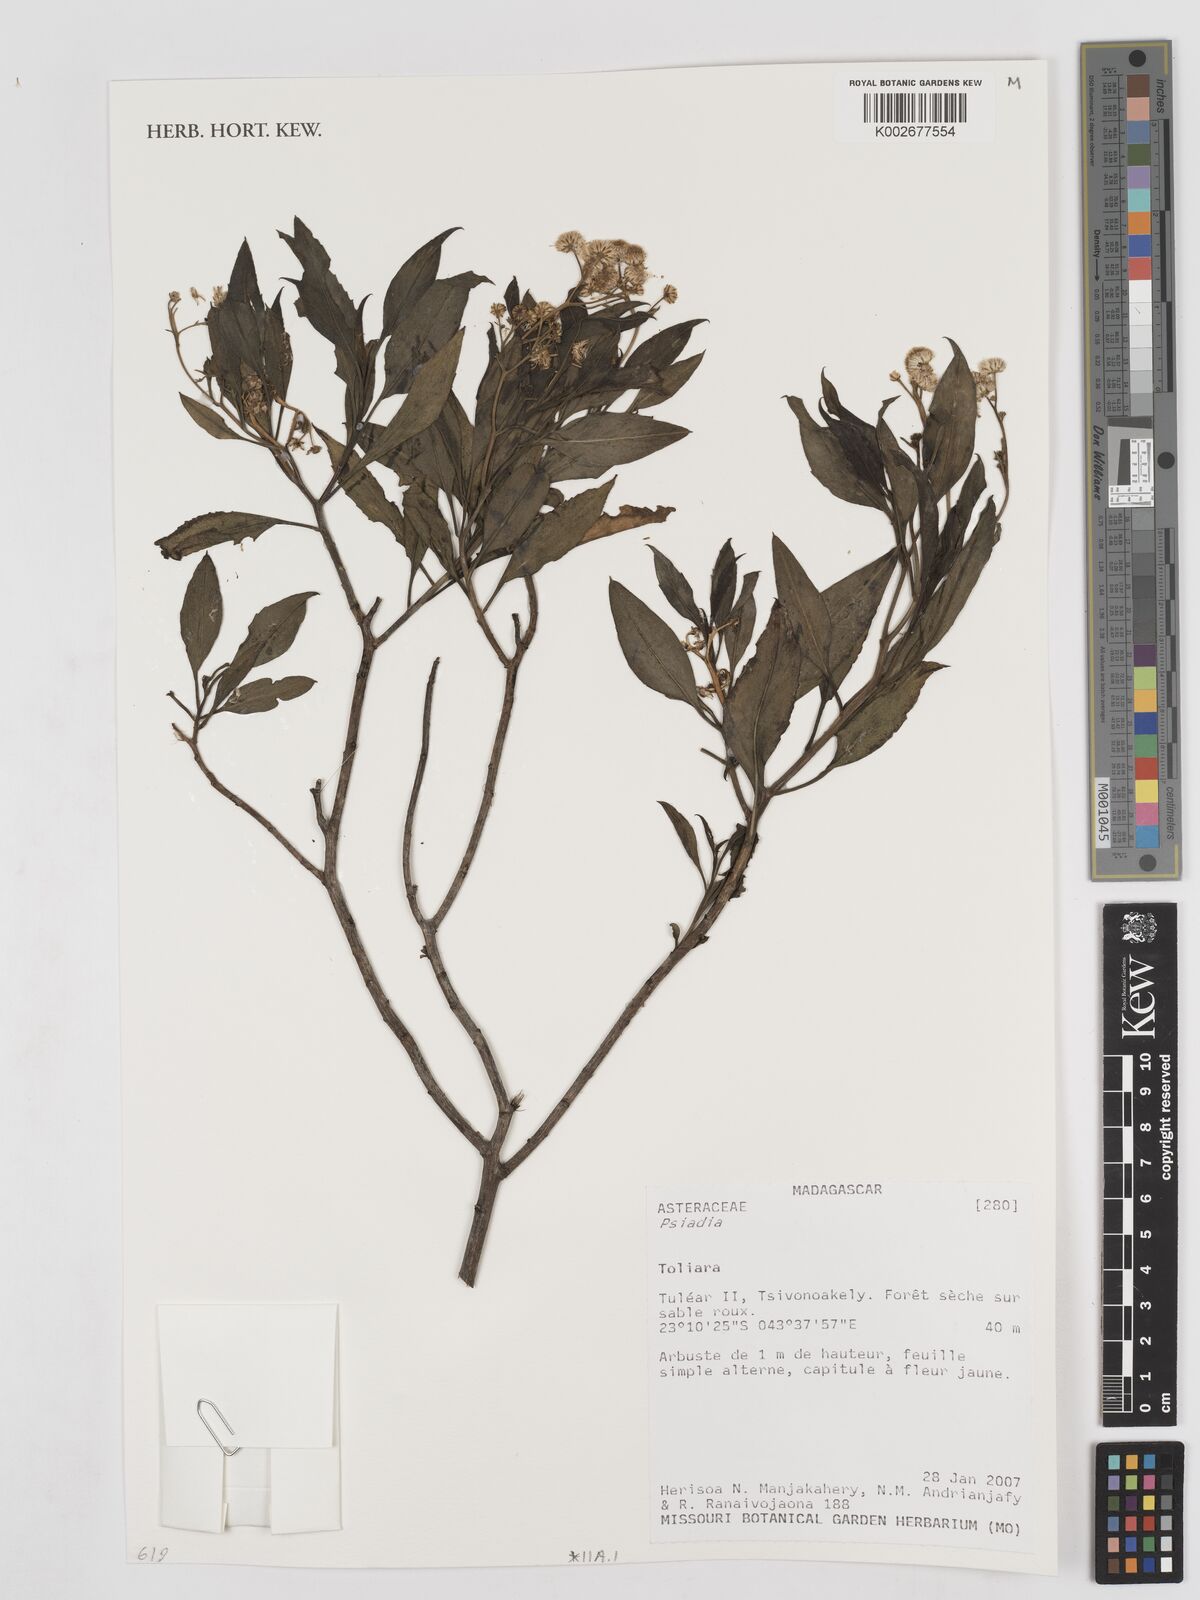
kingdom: Plantae
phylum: Tracheophyta
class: Magnoliopsida
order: Asterales
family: Asteraceae
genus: Psiadia
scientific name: Psiadia
